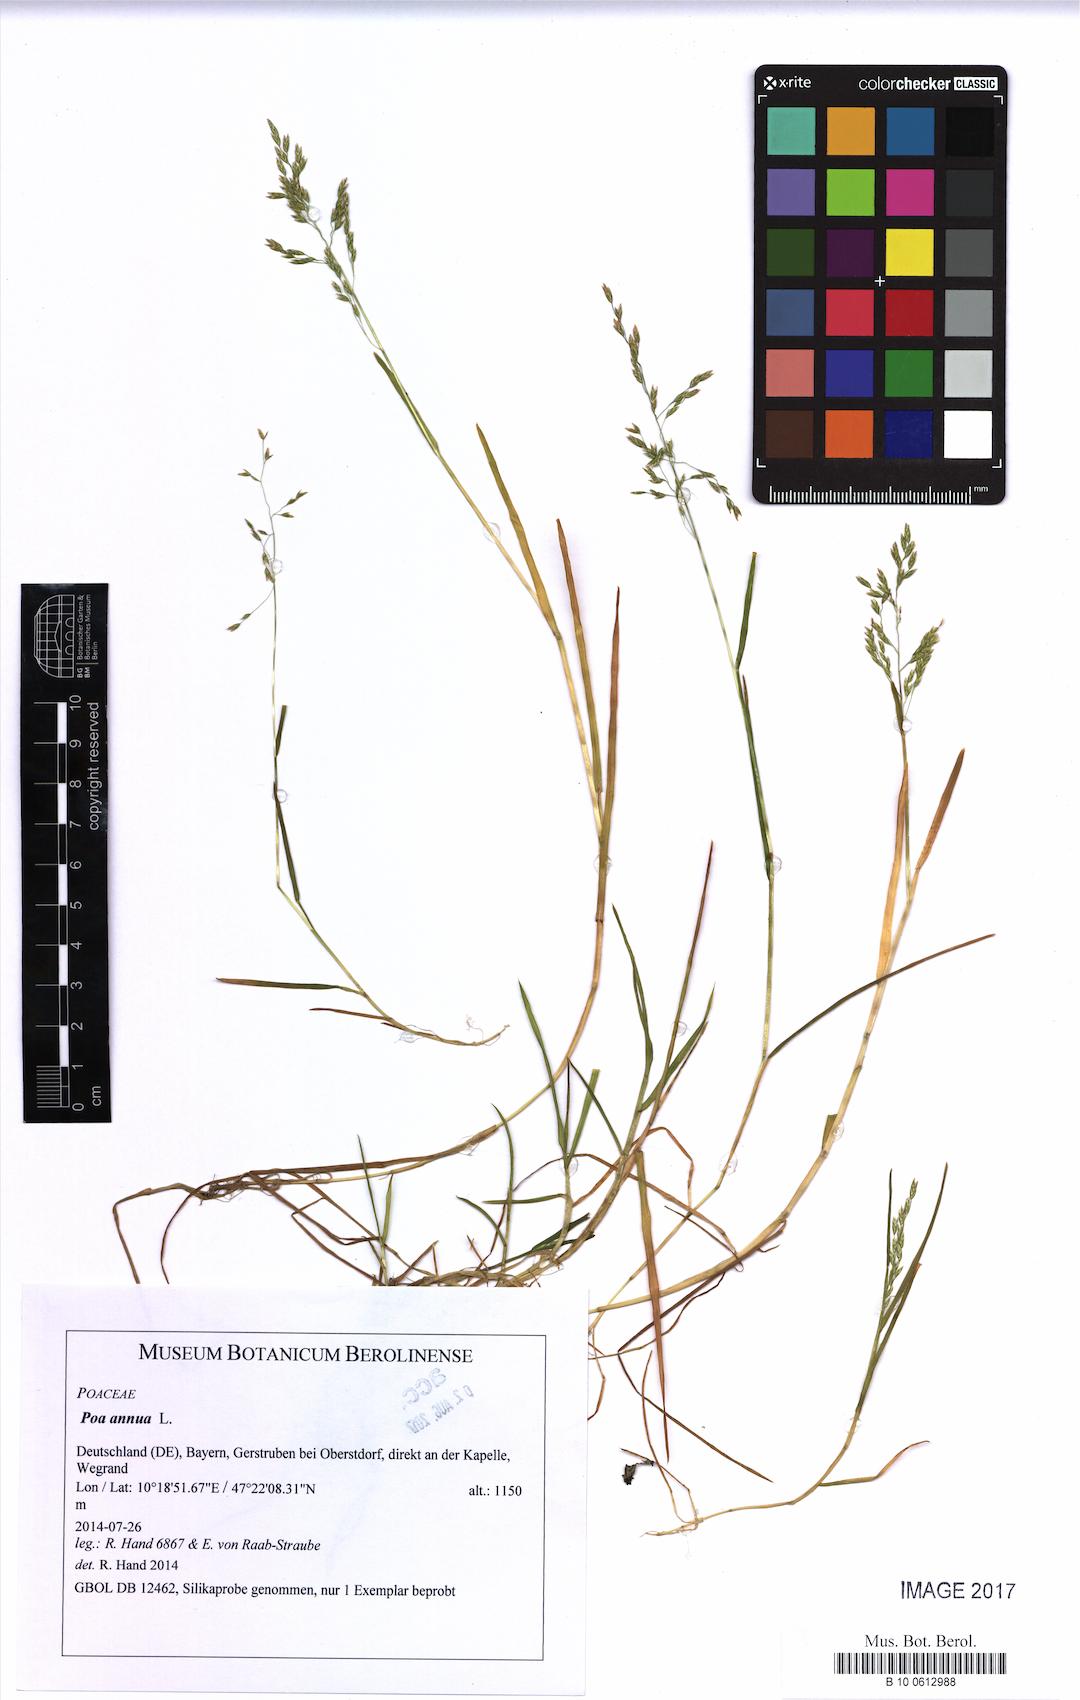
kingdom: Plantae
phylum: Tracheophyta
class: Liliopsida
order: Poales
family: Poaceae
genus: Poa
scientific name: Poa annua
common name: Annual bluegrass
